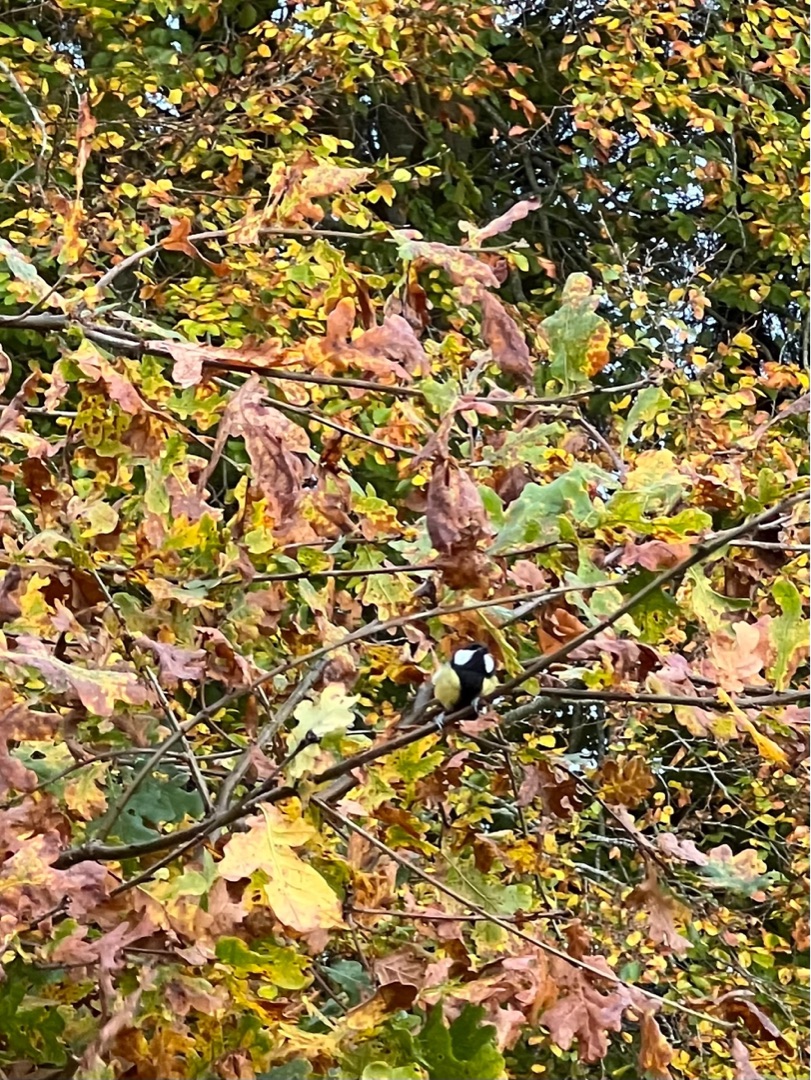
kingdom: Animalia
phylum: Chordata
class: Aves
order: Passeriformes
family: Paridae
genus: Parus
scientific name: Parus major
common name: Musvit
